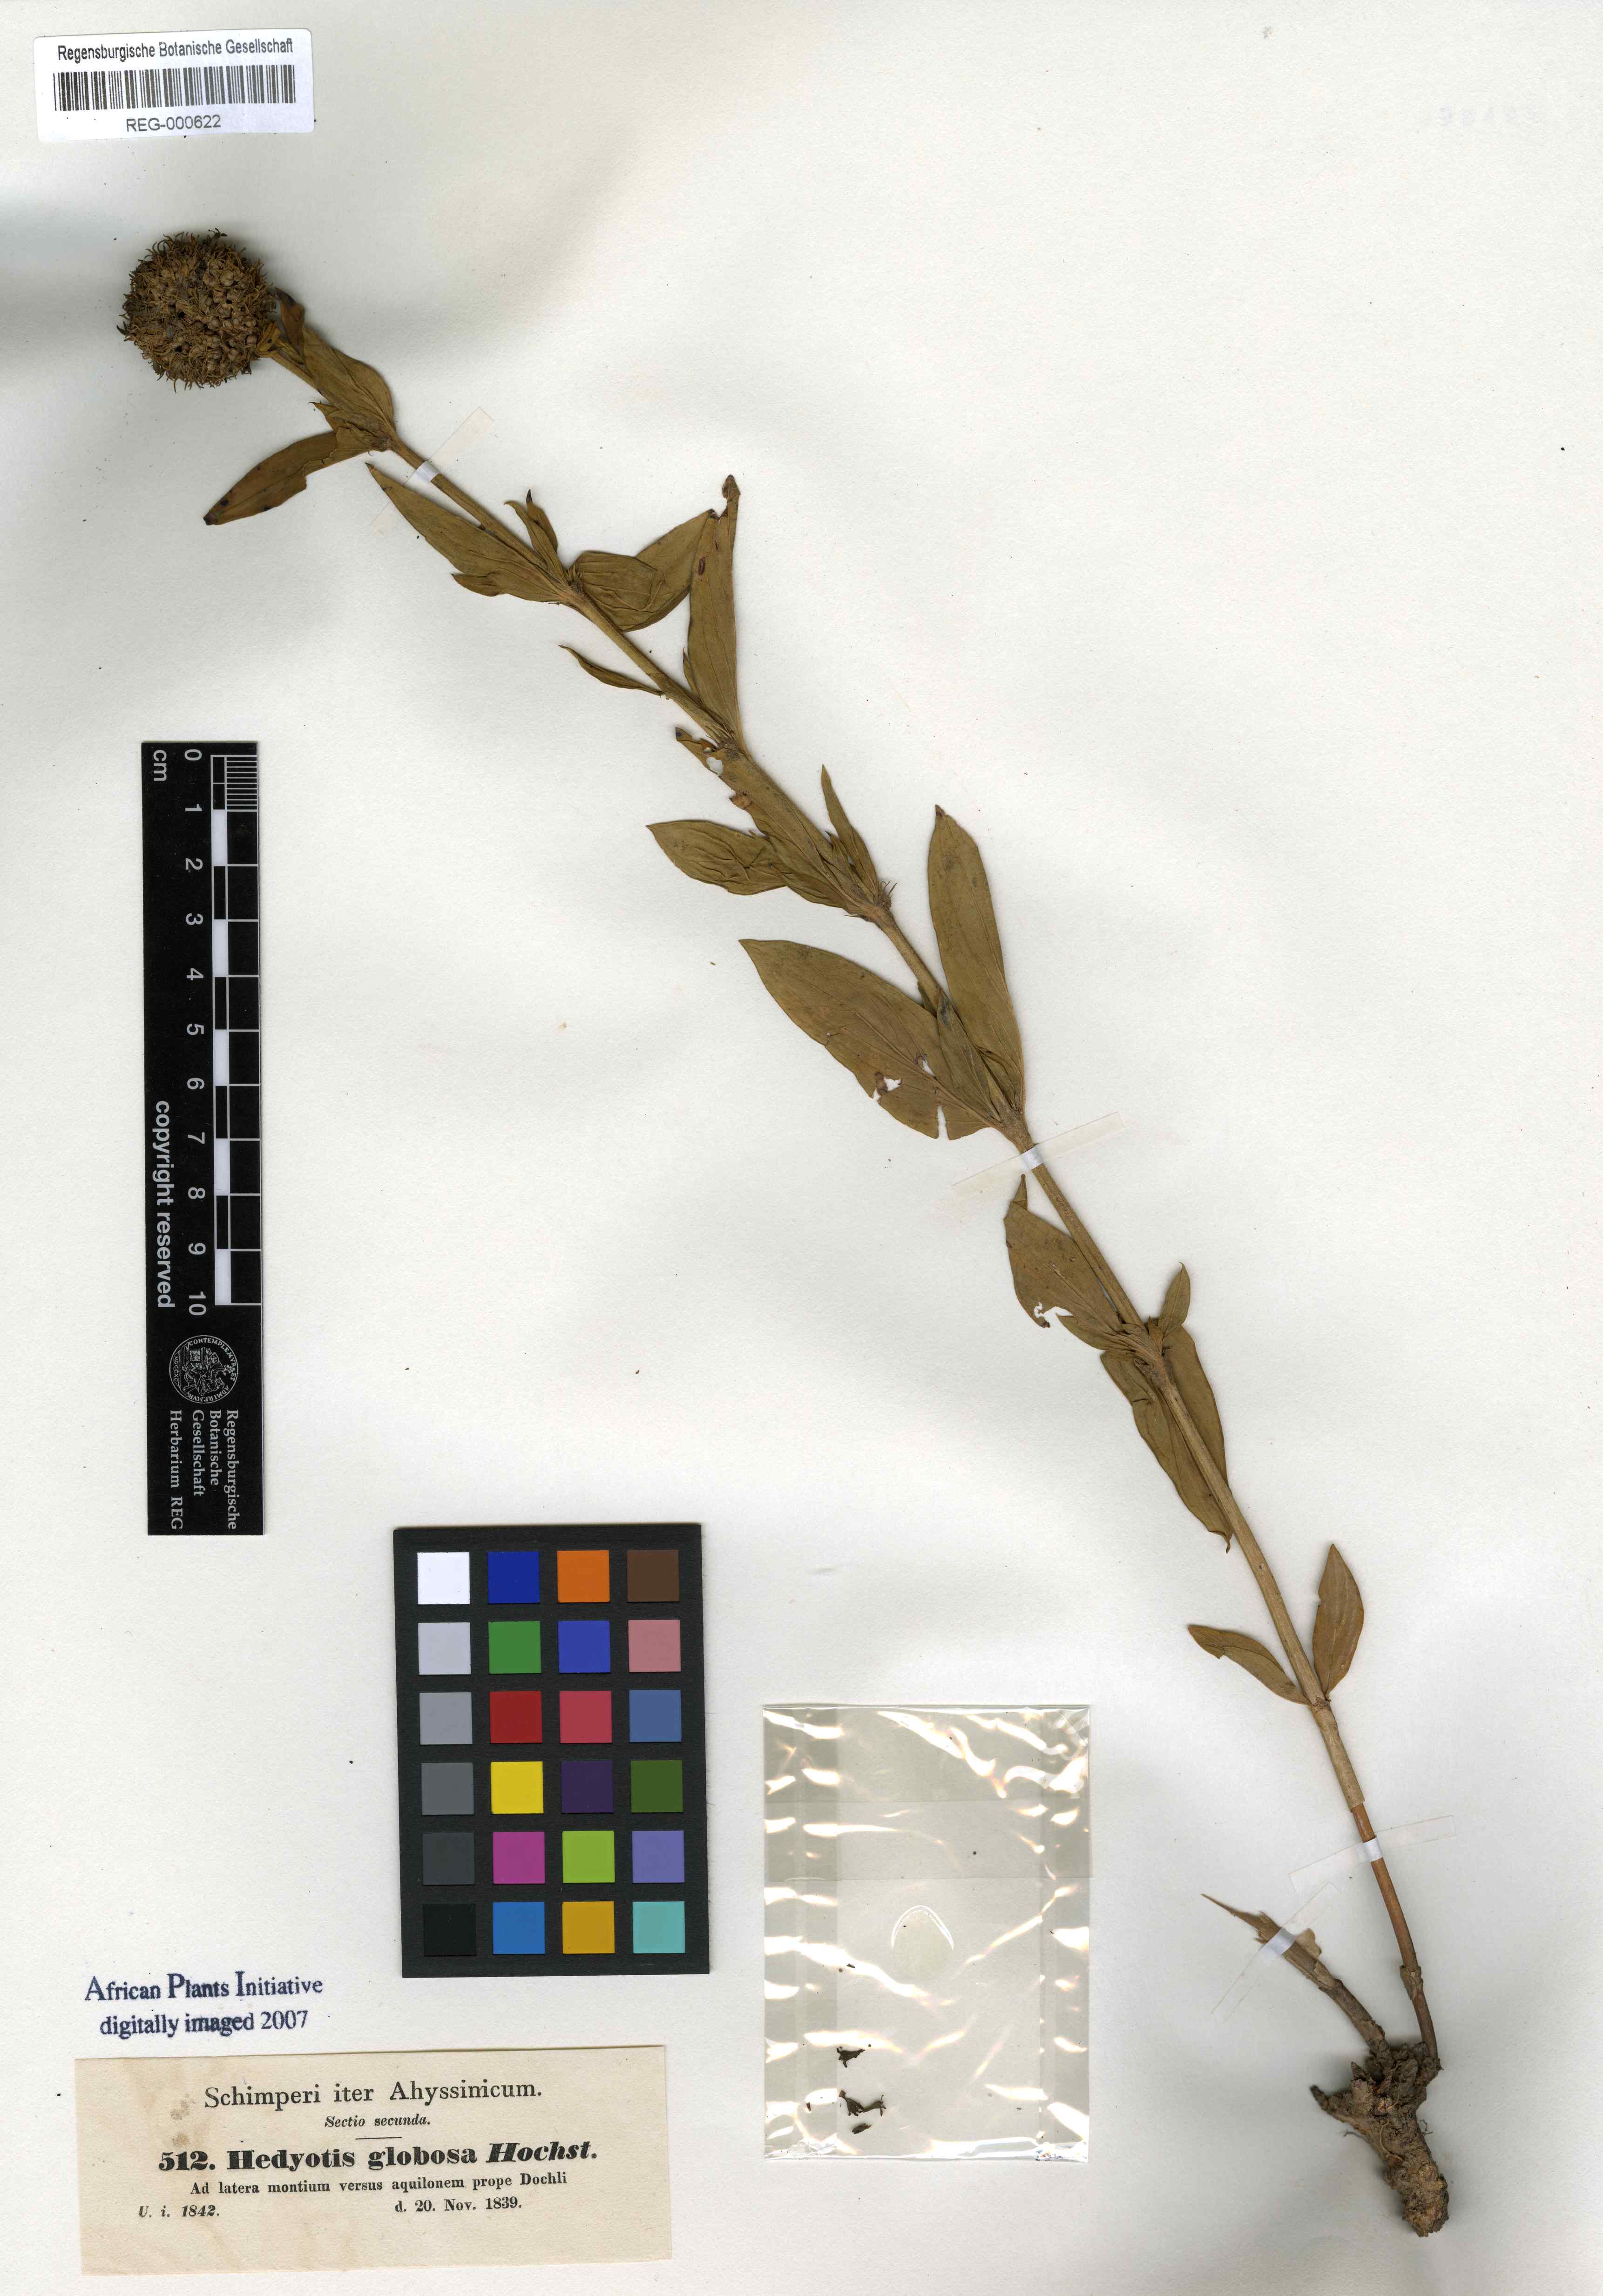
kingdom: Plantae
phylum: Tracheophyta
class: Magnoliopsida
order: Gentianales
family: Rubiaceae
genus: Agathisanthemum
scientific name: Agathisanthemum globosum
